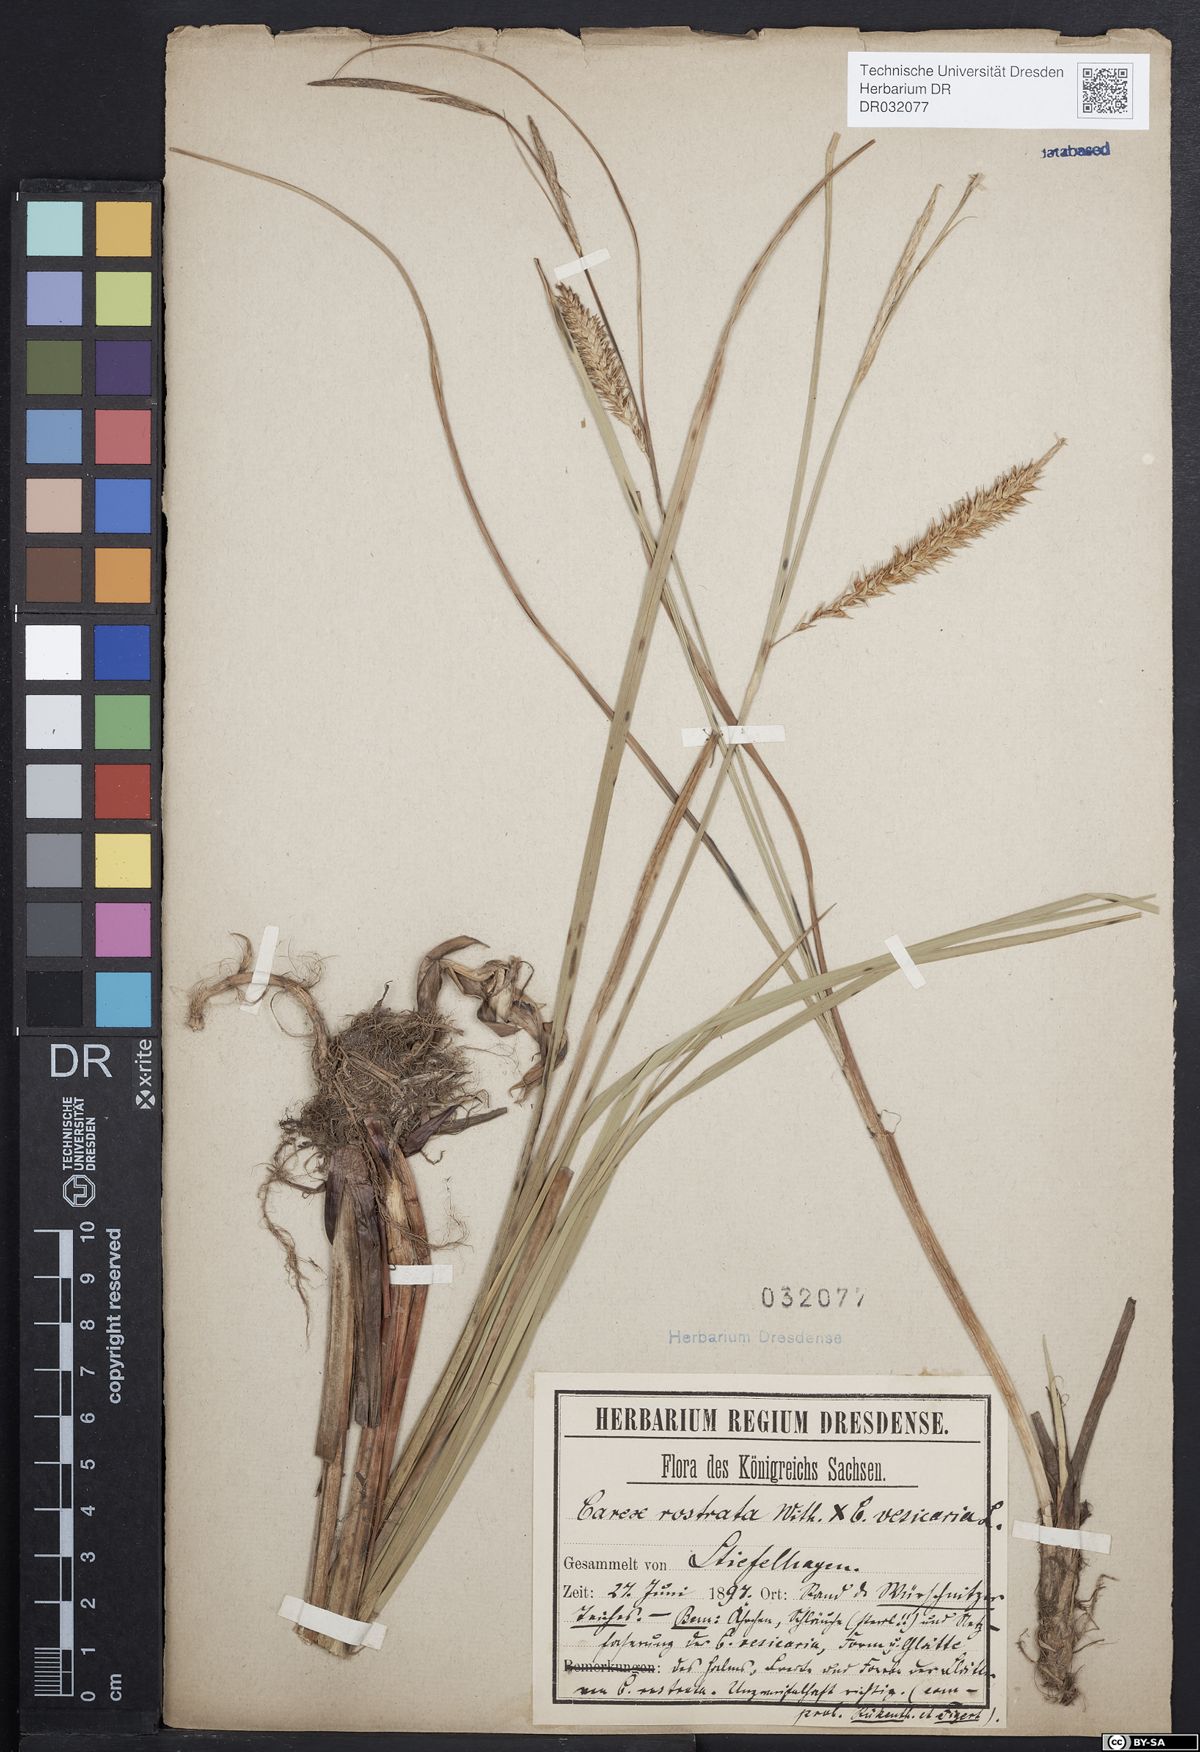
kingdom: Plantae
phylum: Tracheophyta
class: Liliopsida
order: Poales
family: Cyperaceae
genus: Carex
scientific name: Carex rostrata
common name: Bottle sedge
